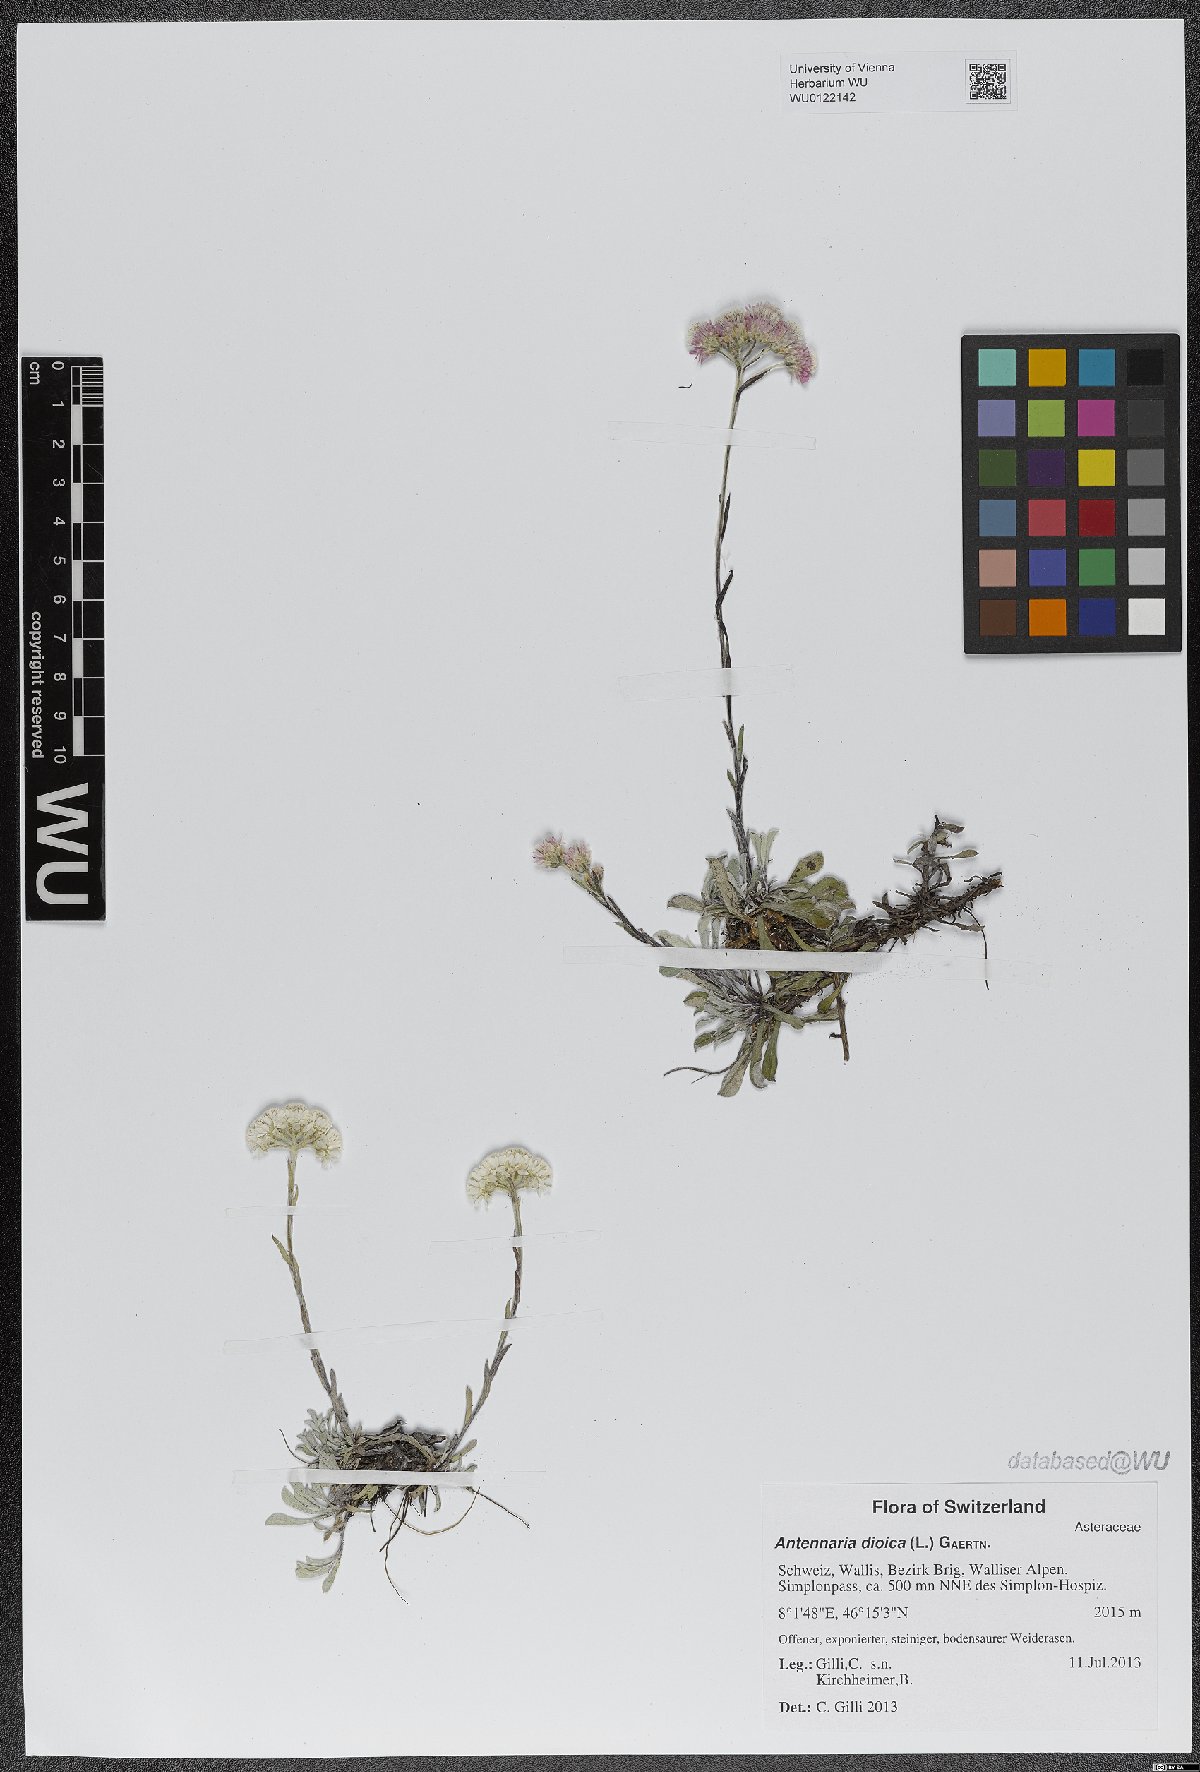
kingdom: Plantae
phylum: Tracheophyta
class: Magnoliopsida
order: Asterales
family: Asteraceae
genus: Antennaria
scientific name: Antennaria dioica
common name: Mountain everlasting
